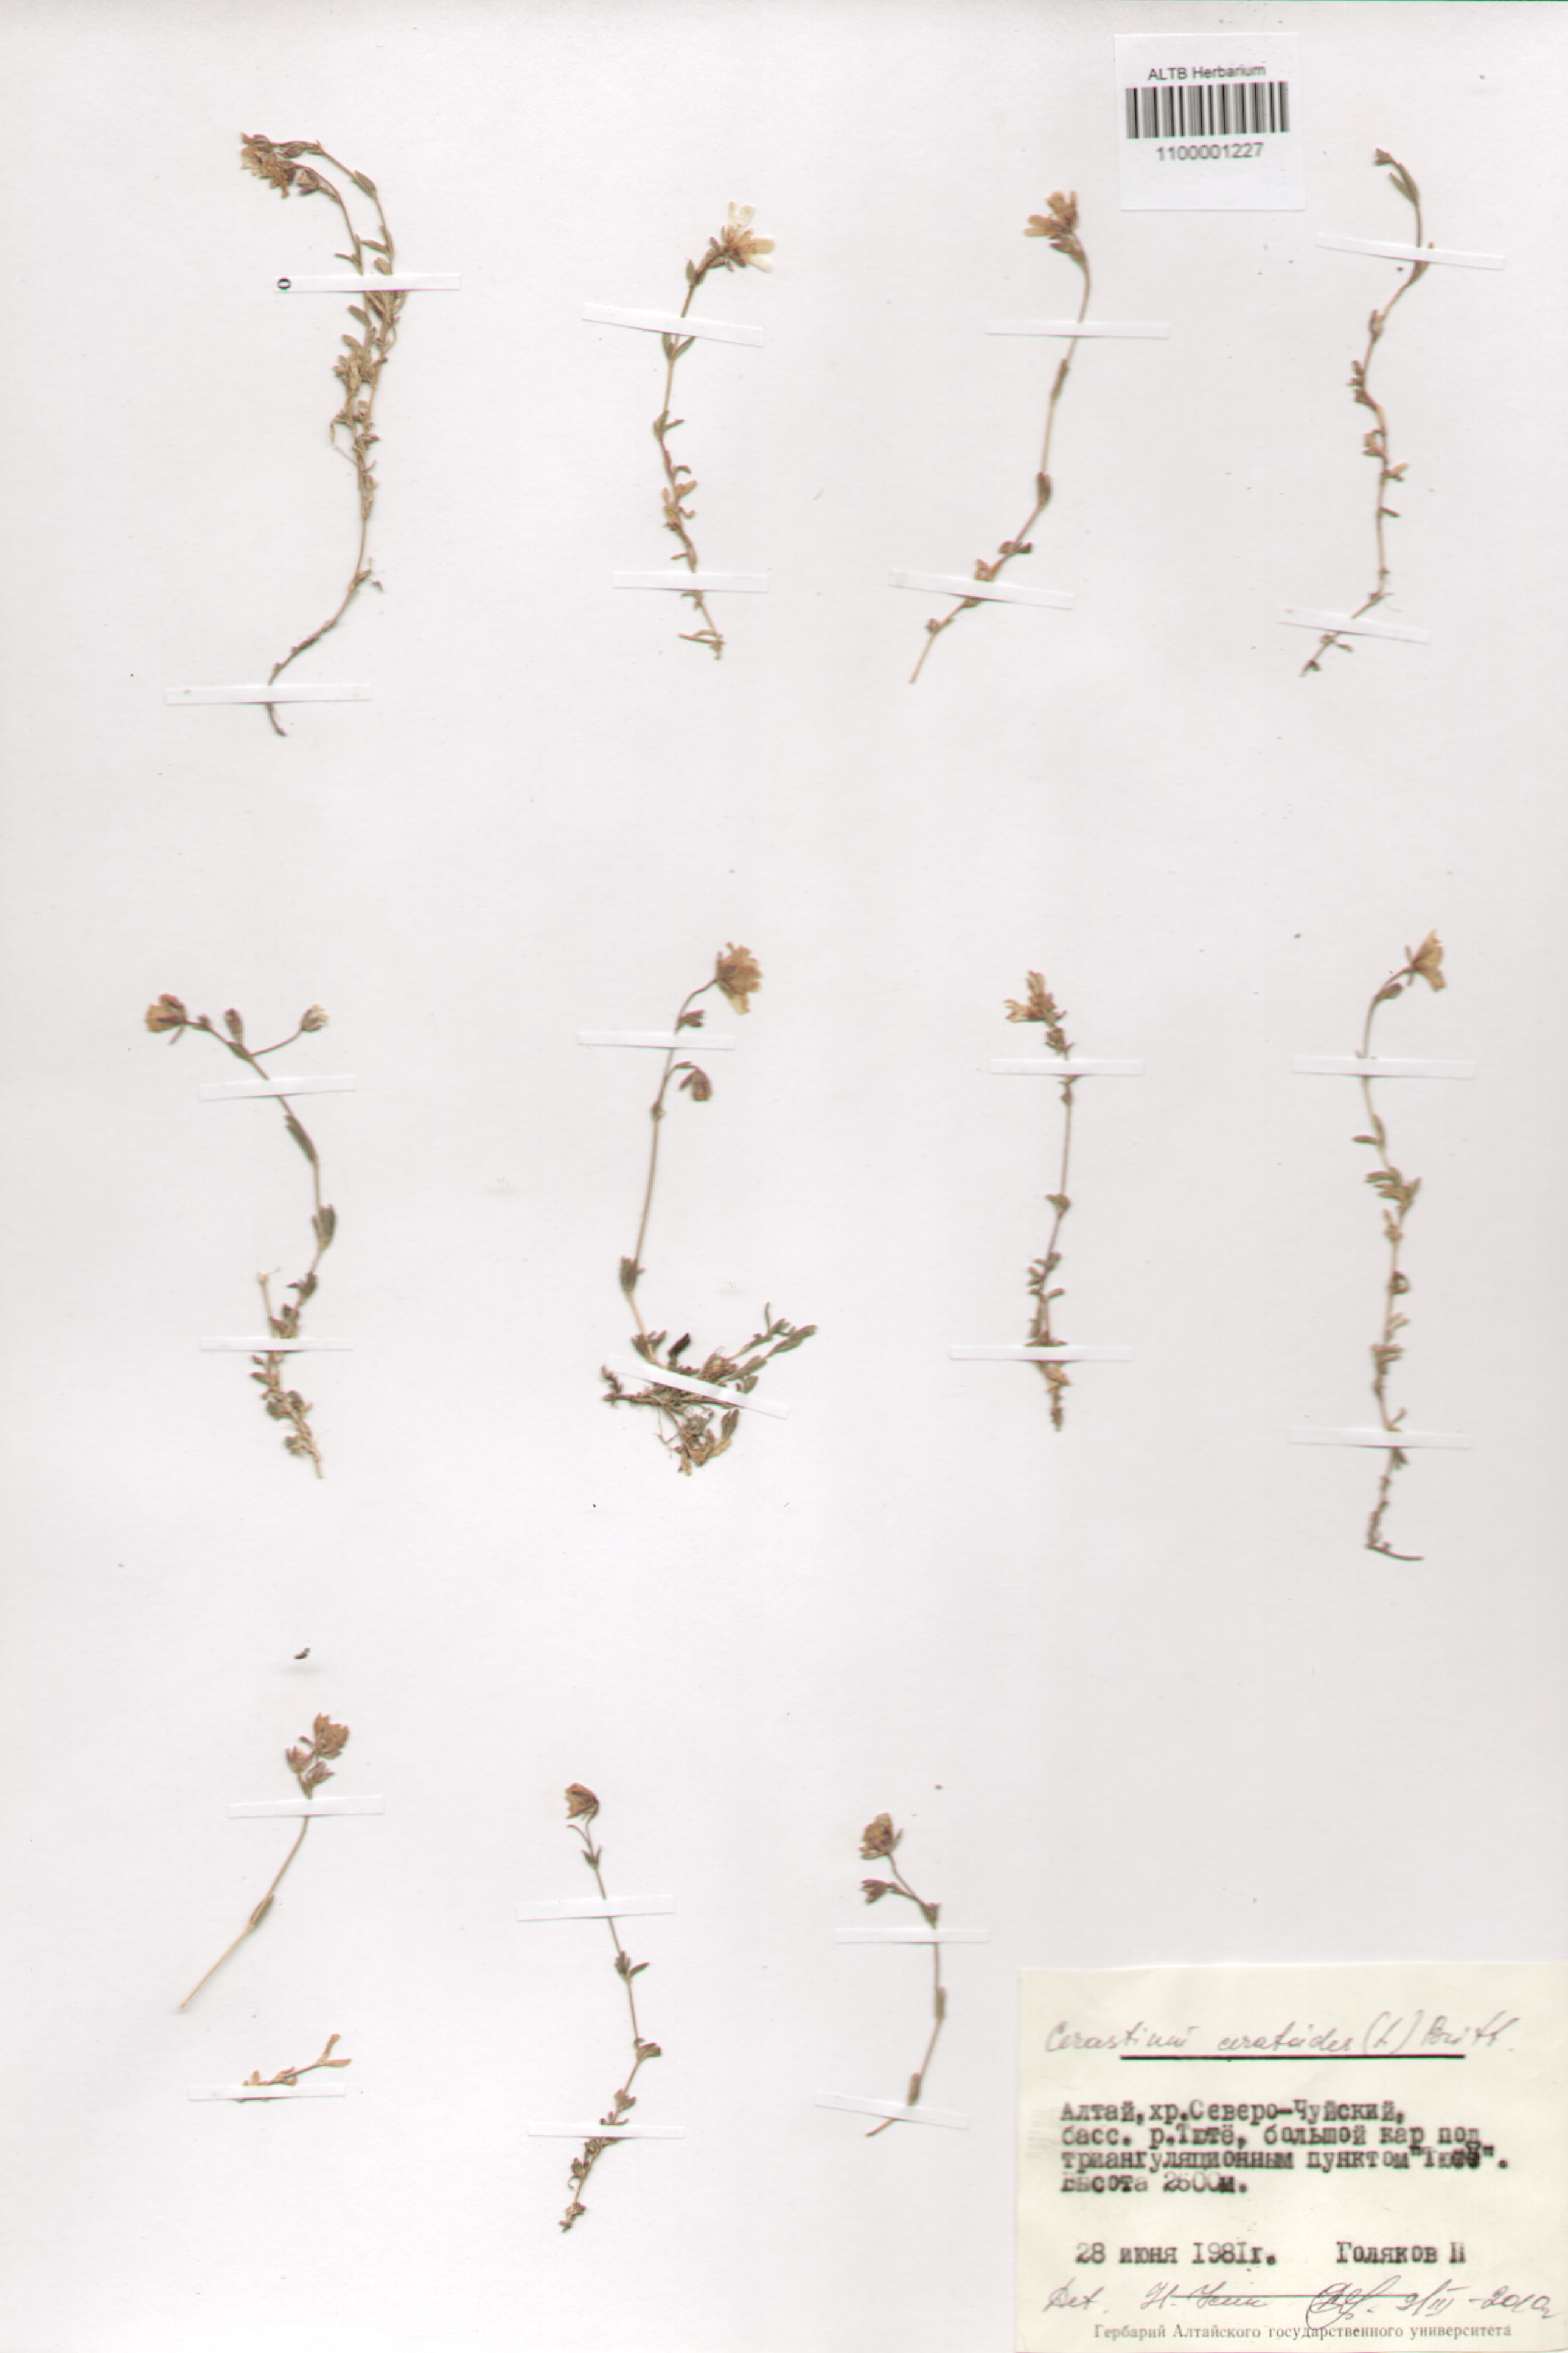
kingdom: Plantae
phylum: Tracheophyta
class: Magnoliopsida
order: Caryophyllales
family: Caryophyllaceae
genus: Dichodon
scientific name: Dichodon cerastoides
